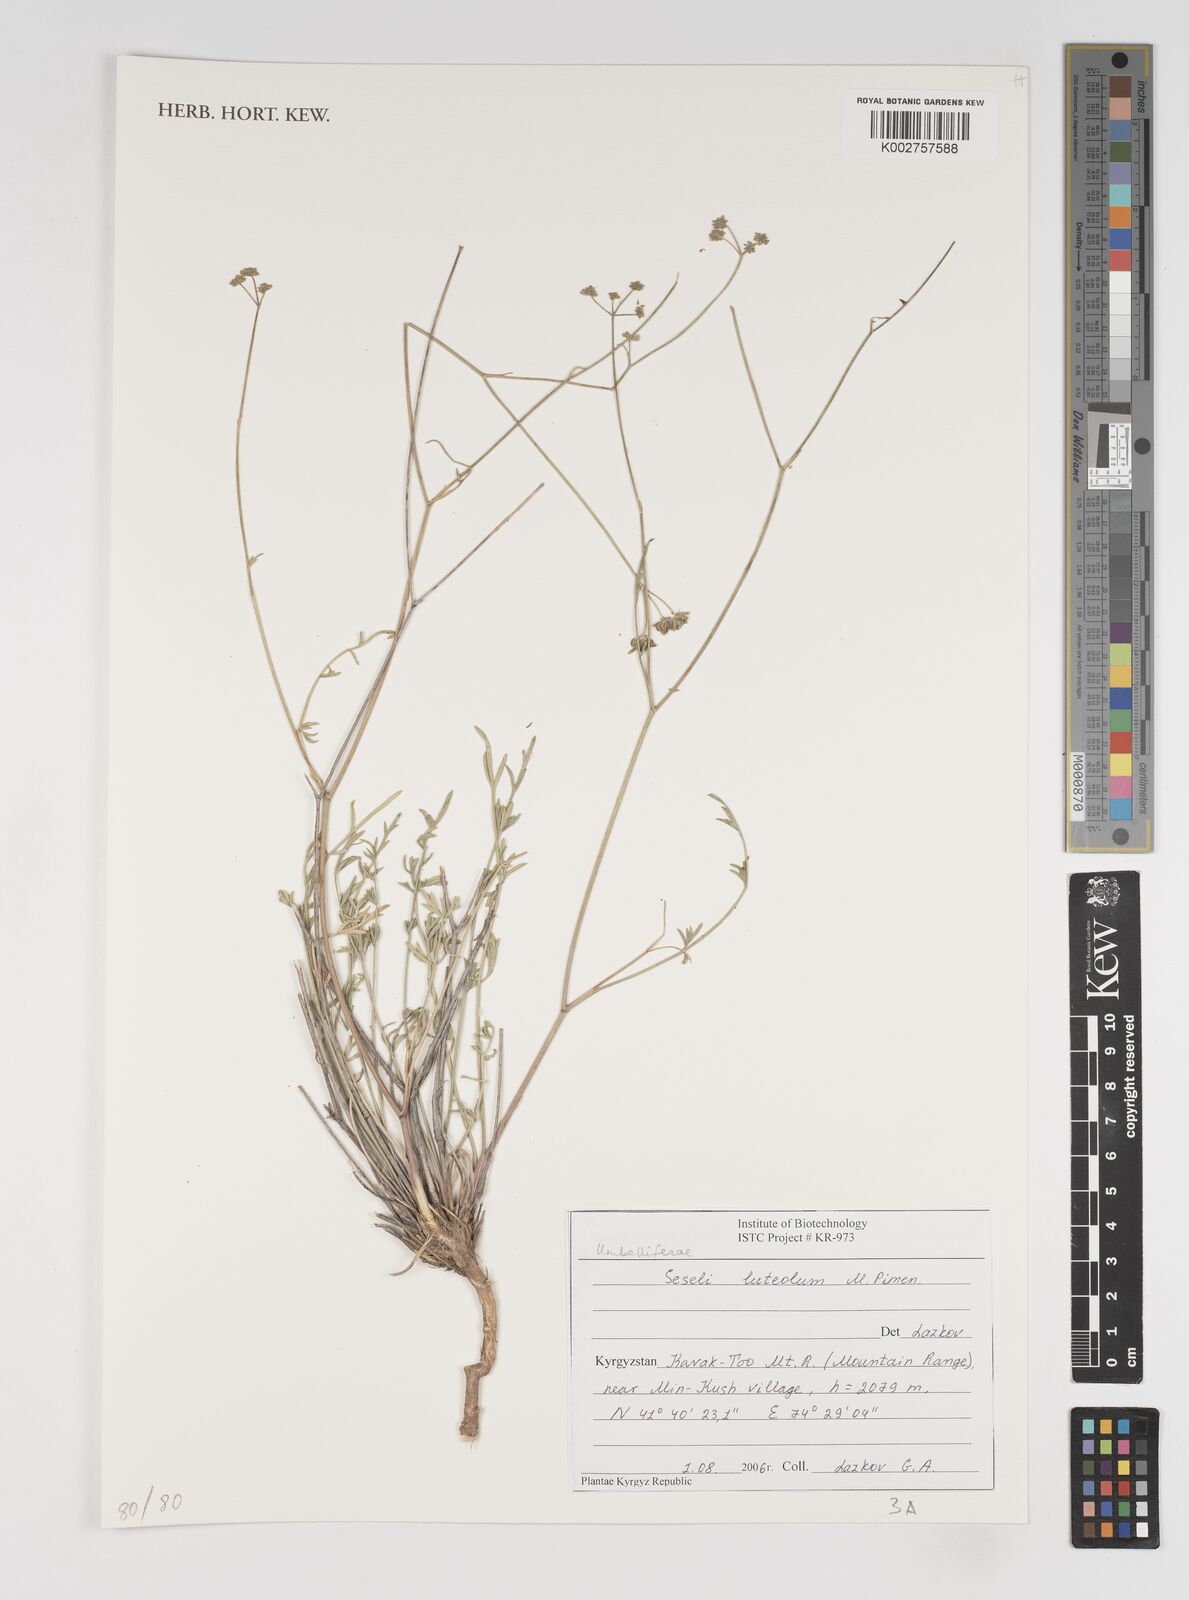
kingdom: Plantae
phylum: Tracheophyta
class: Magnoliopsida
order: Apiales
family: Apiaceae
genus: Seseli
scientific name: Seseli luteolum
